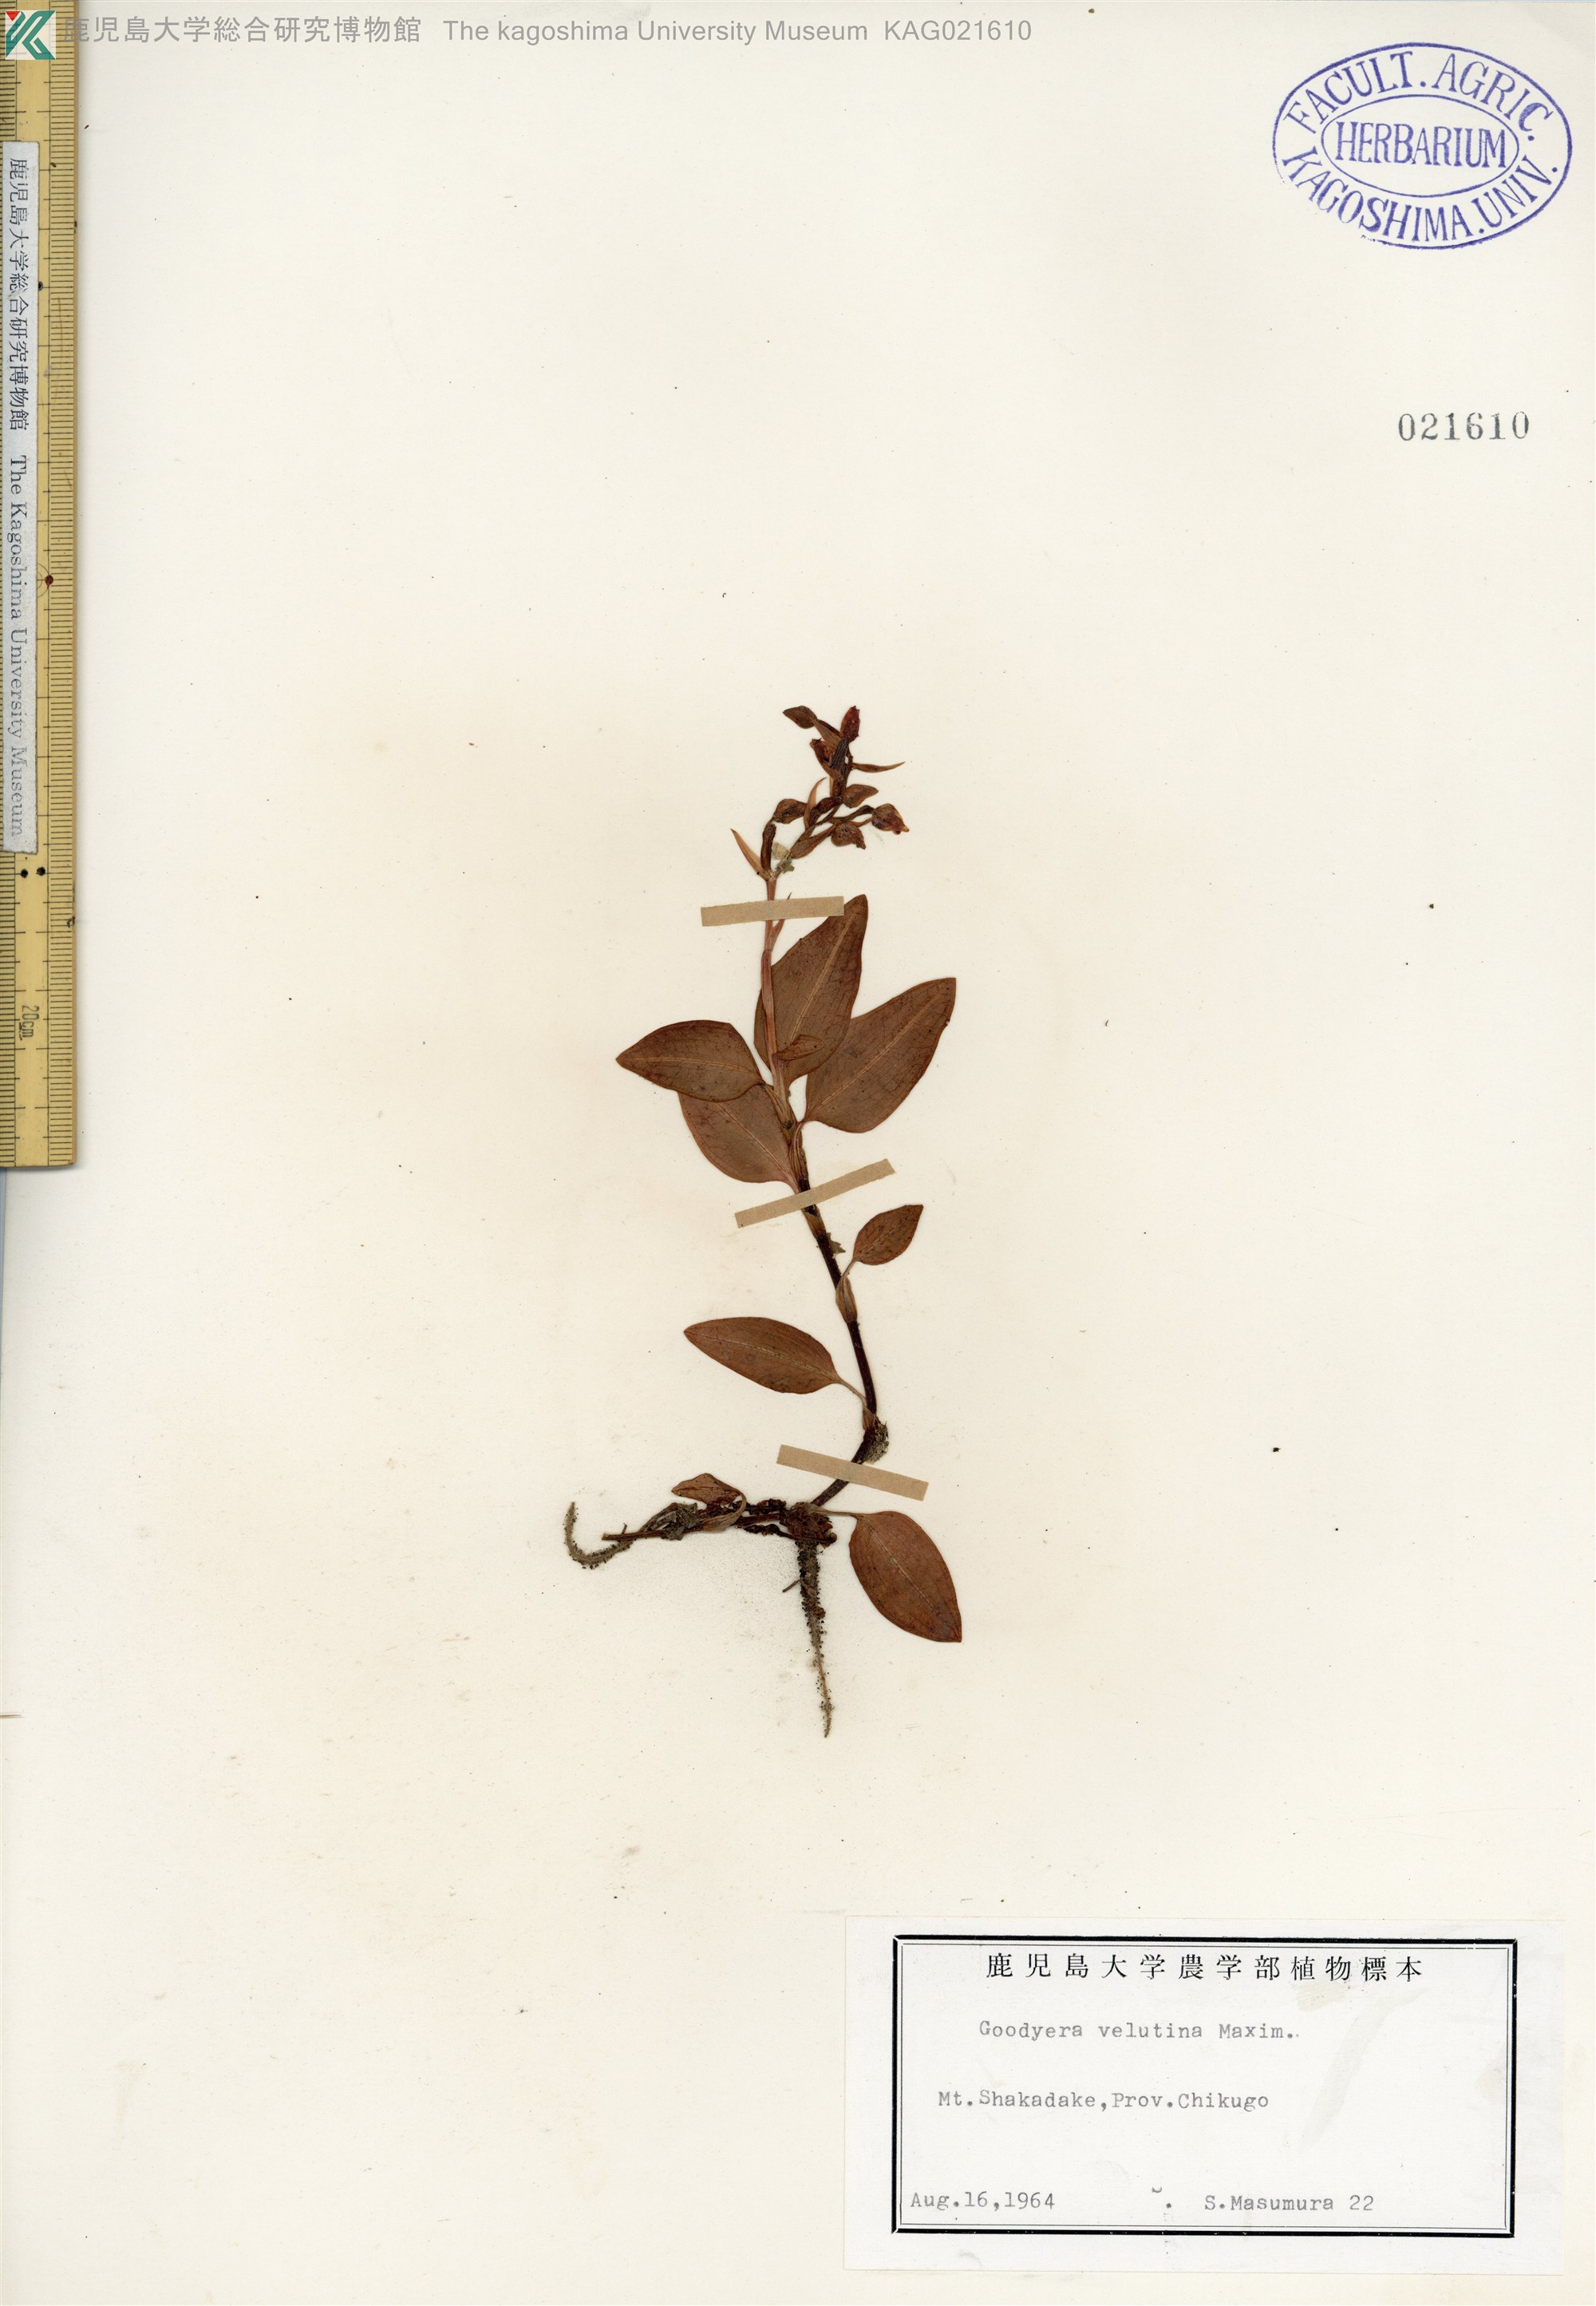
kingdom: Plantae
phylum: Tracheophyta
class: Liliopsida
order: Asparagales
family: Orchidaceae
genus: Goodyera
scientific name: Goodyera velutina
